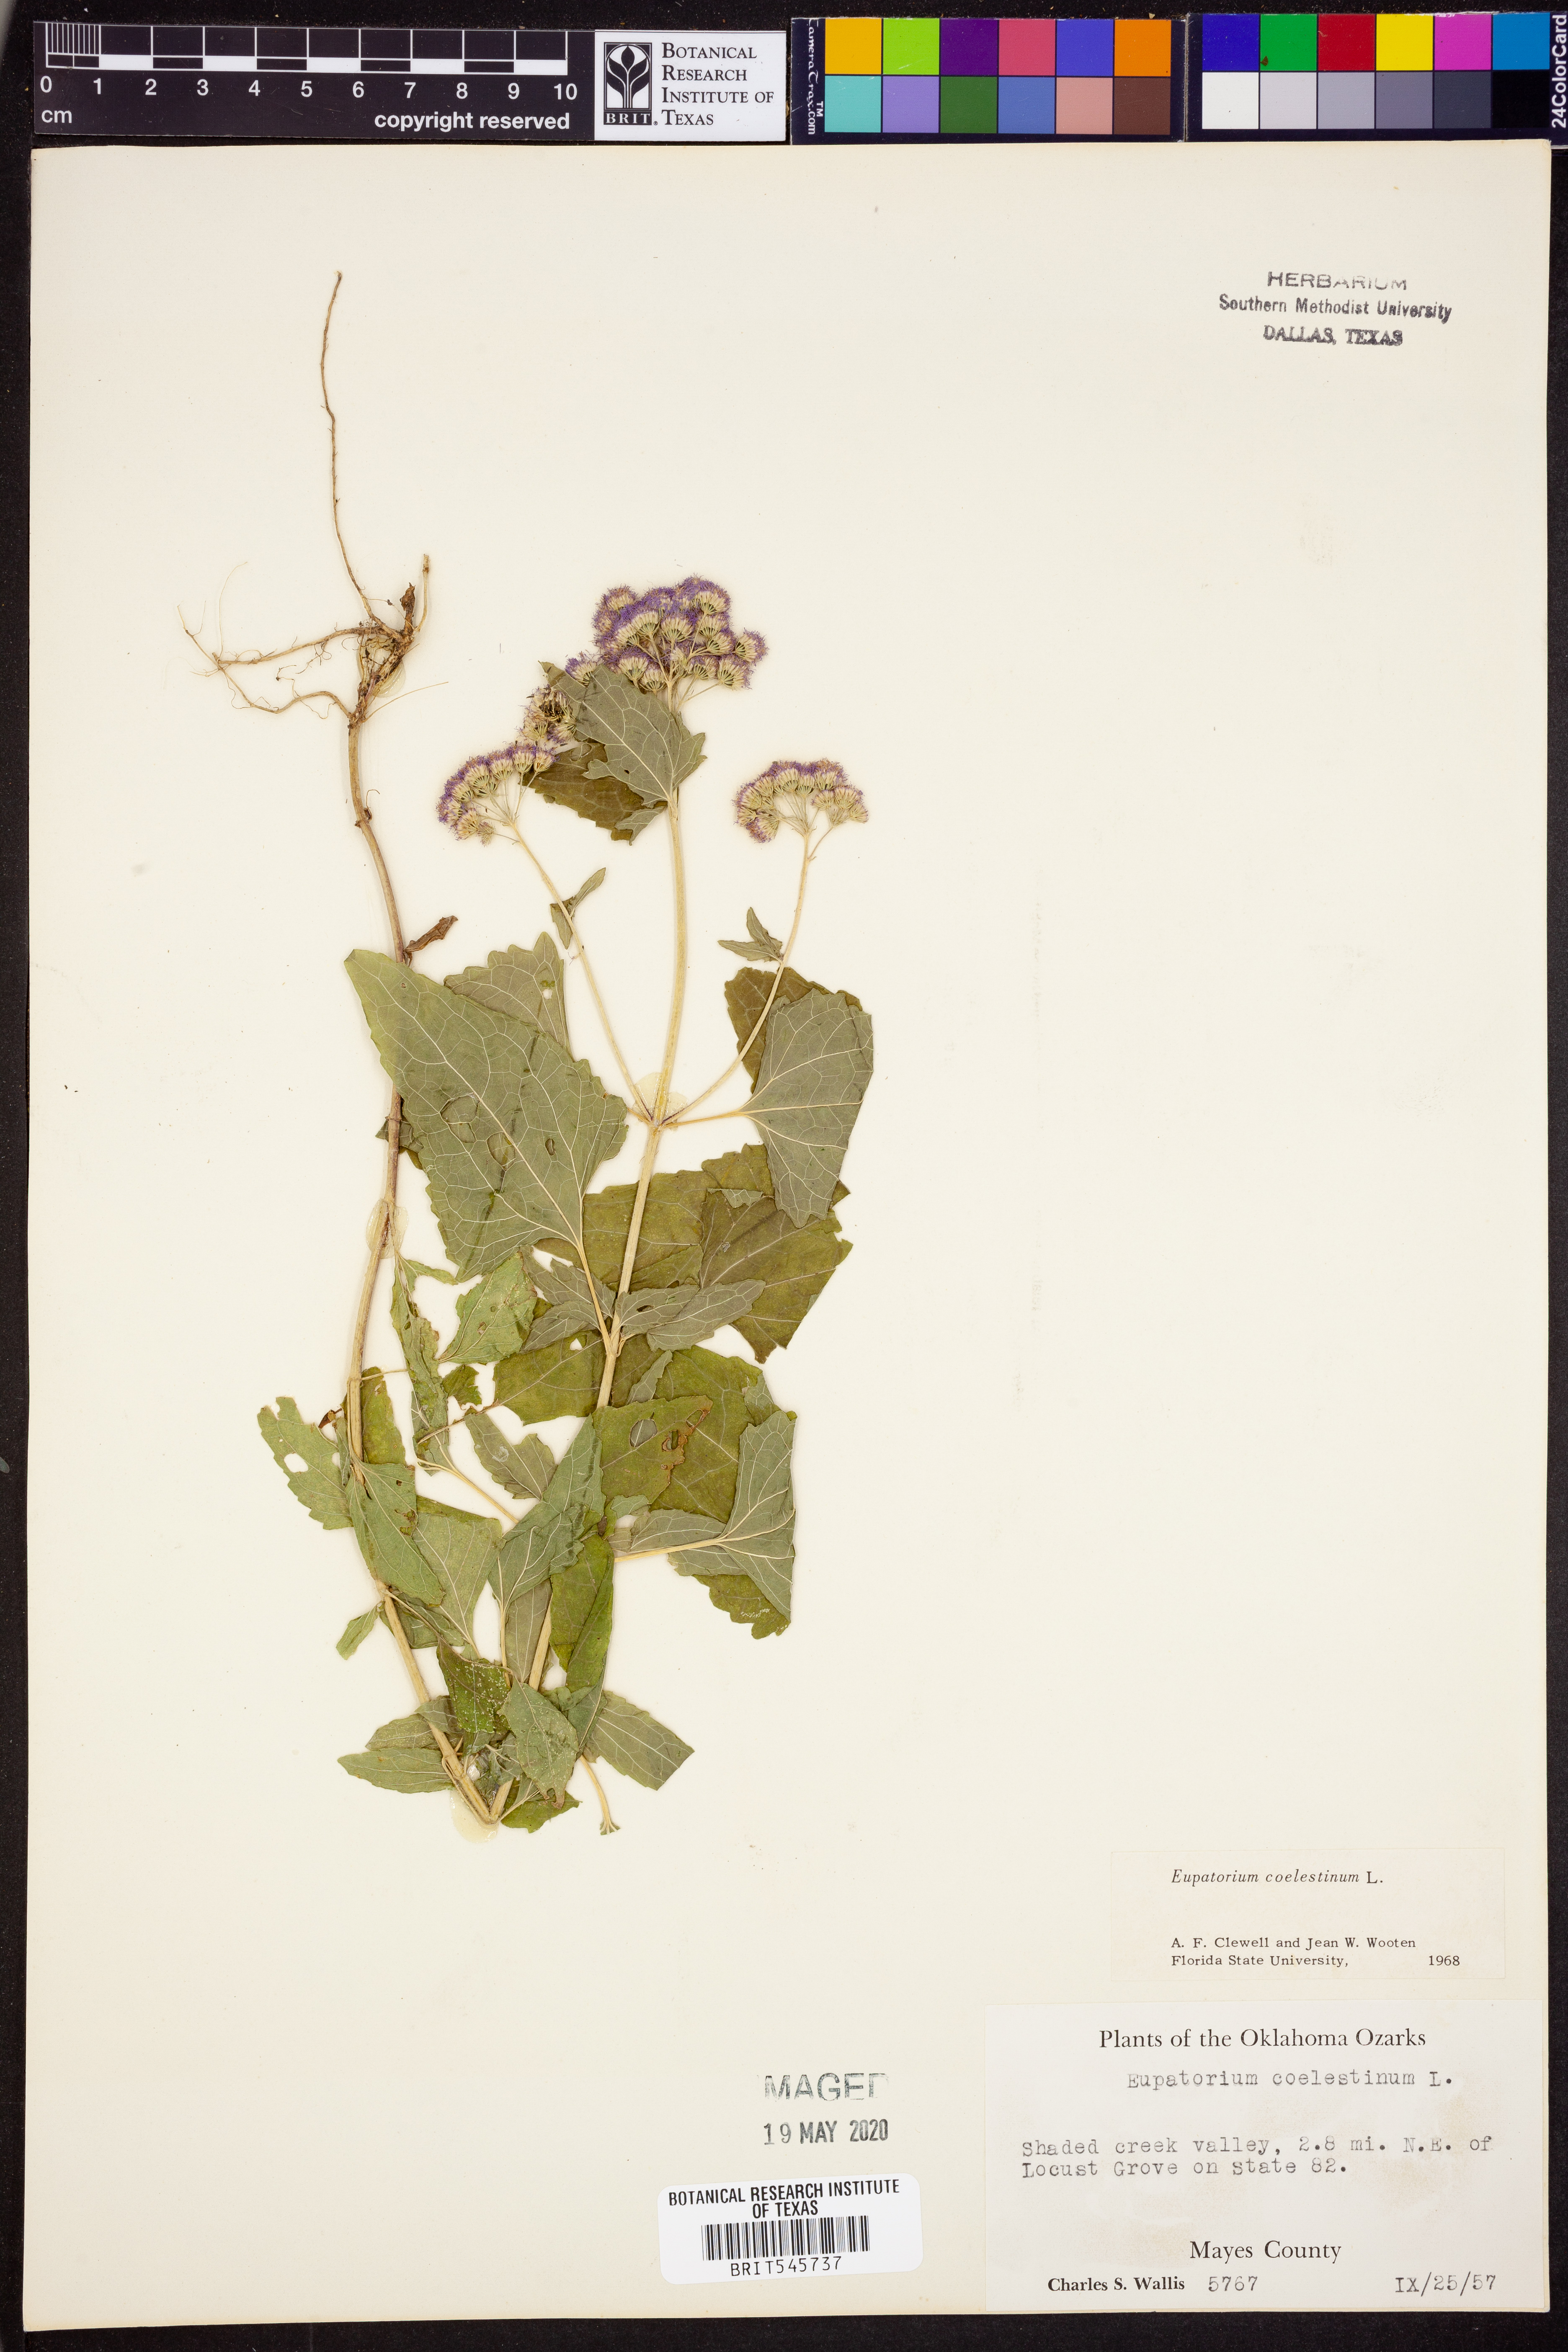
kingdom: Plantae
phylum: Tracheophyta
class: Magnoliopsida
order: Asterales
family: Asteraceae
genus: Conoclinium
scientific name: Conoclinium coelestinum
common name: Blue mistflower
